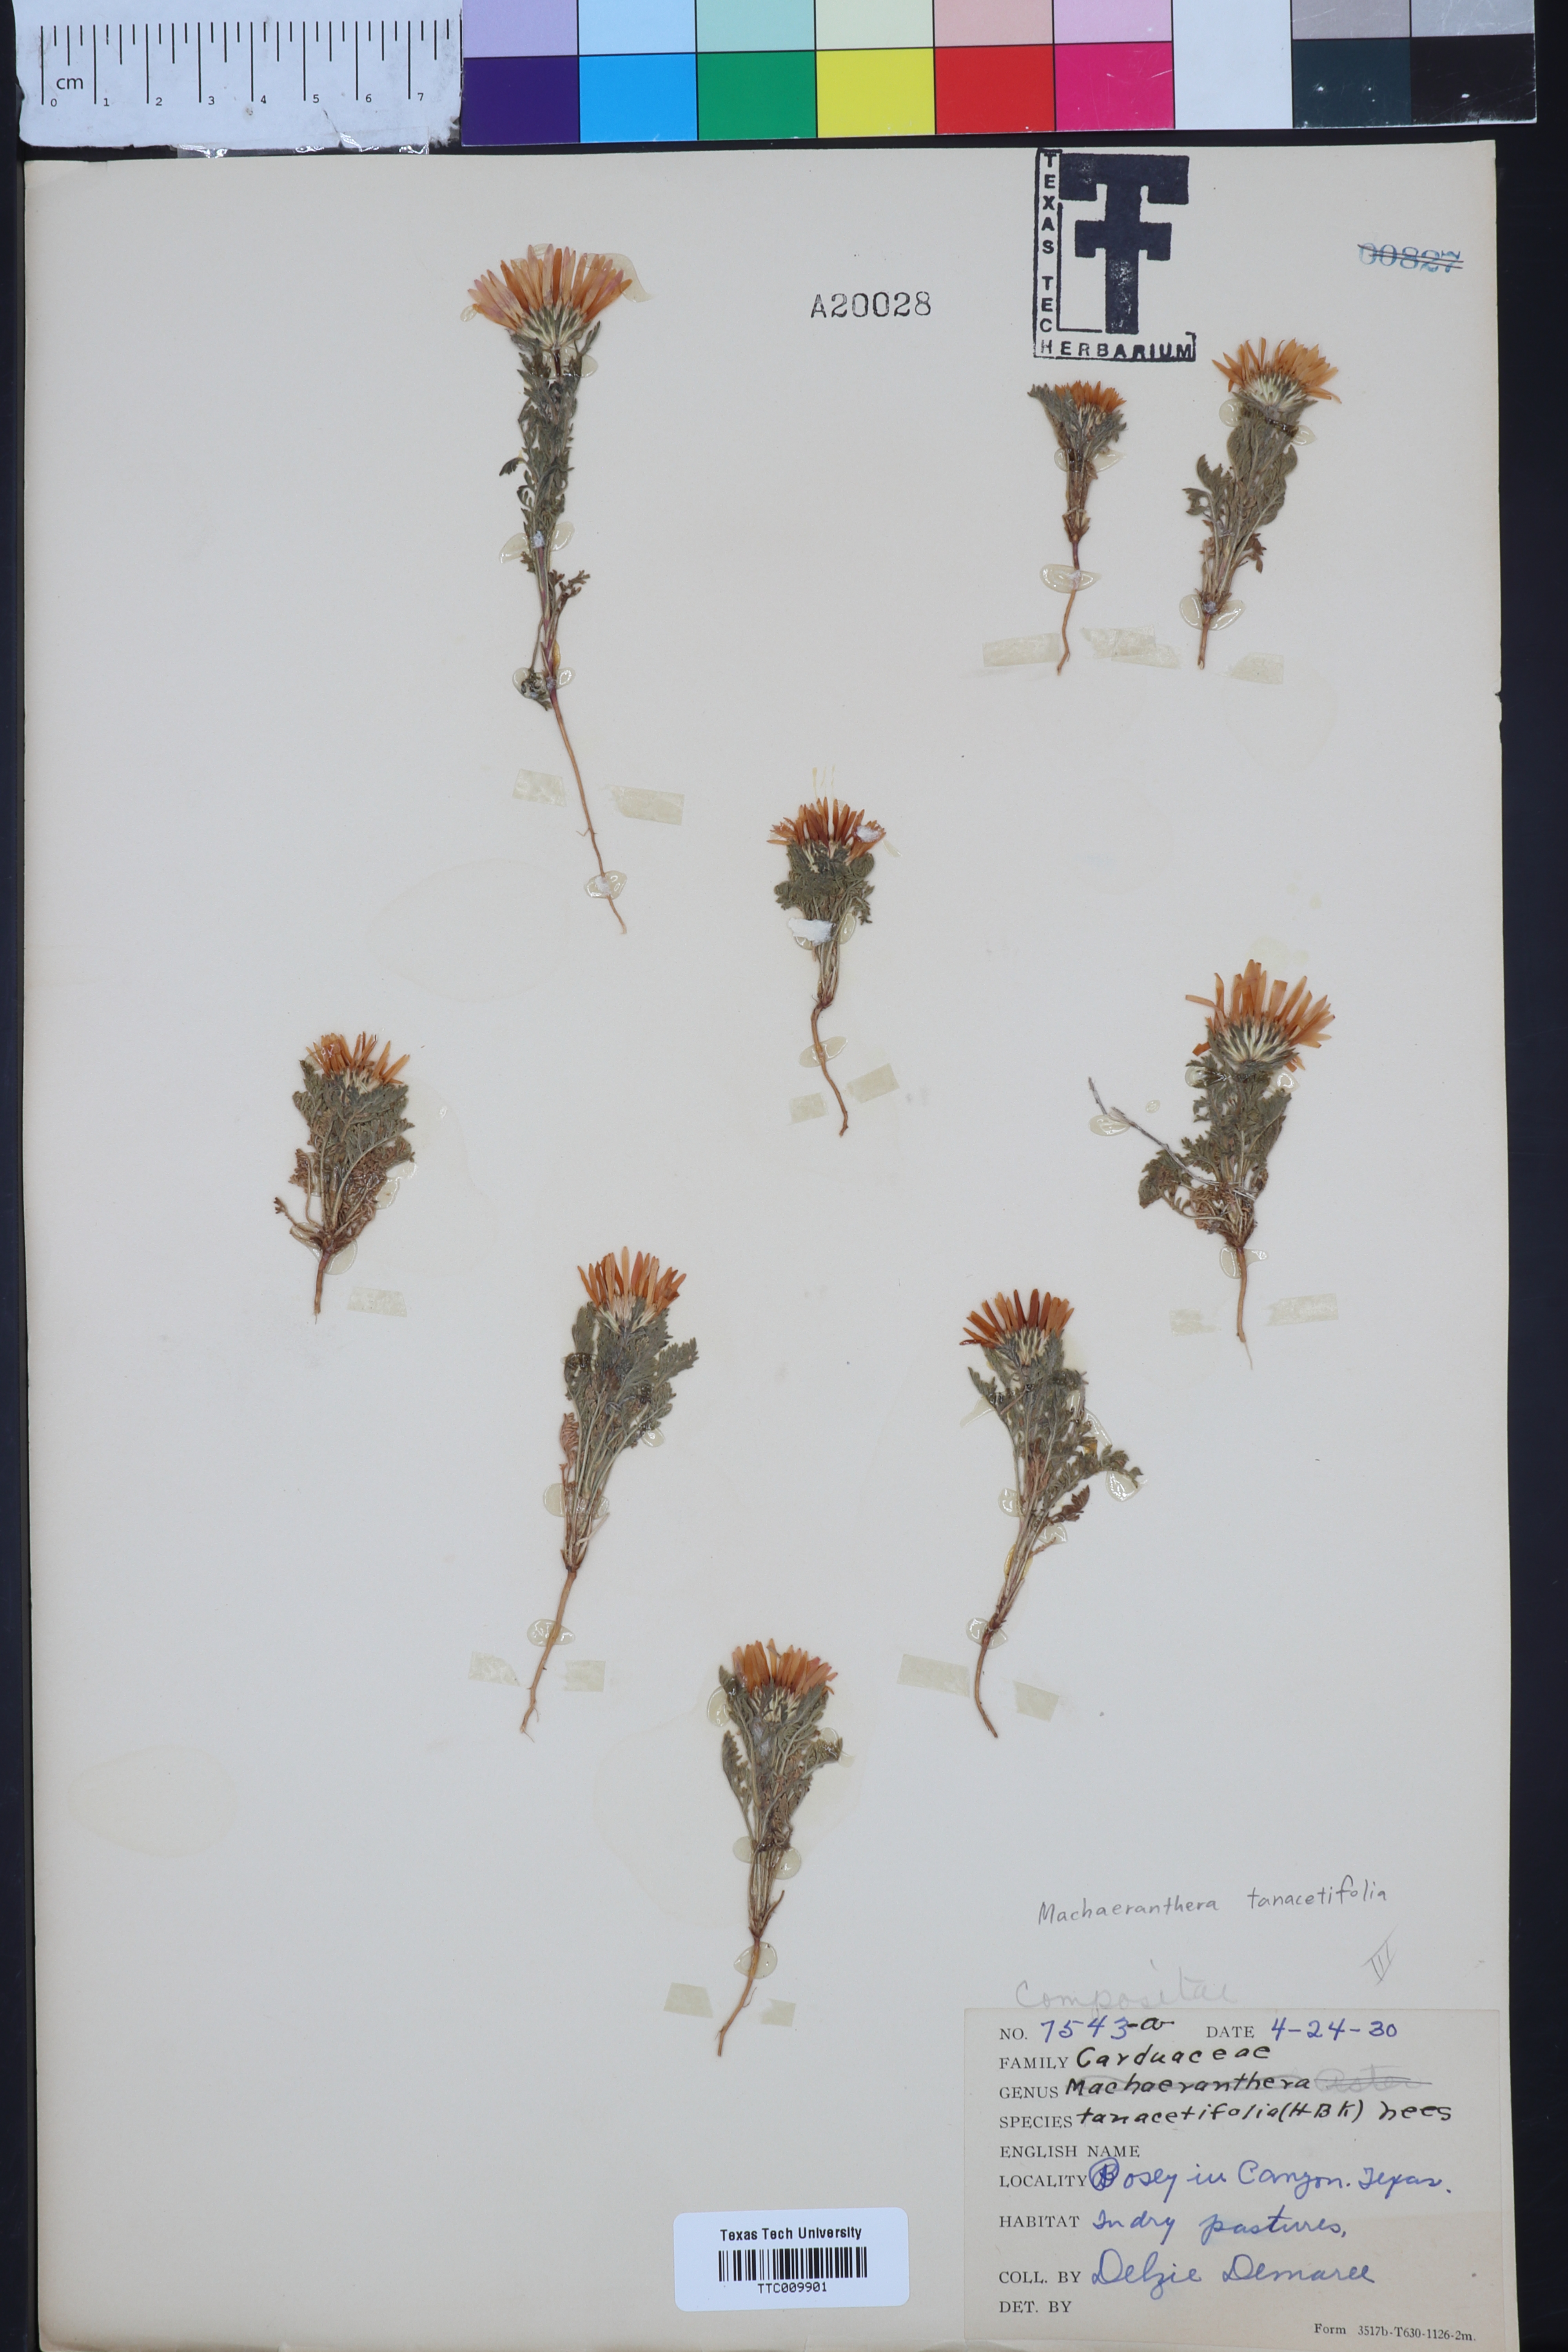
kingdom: Plantae
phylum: Tracheophyta
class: Magnoliopsida
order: Asterales
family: Asteraceae
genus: Machaeranthera
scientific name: Machaeranthera tanacetifolia
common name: Tansy-aster
